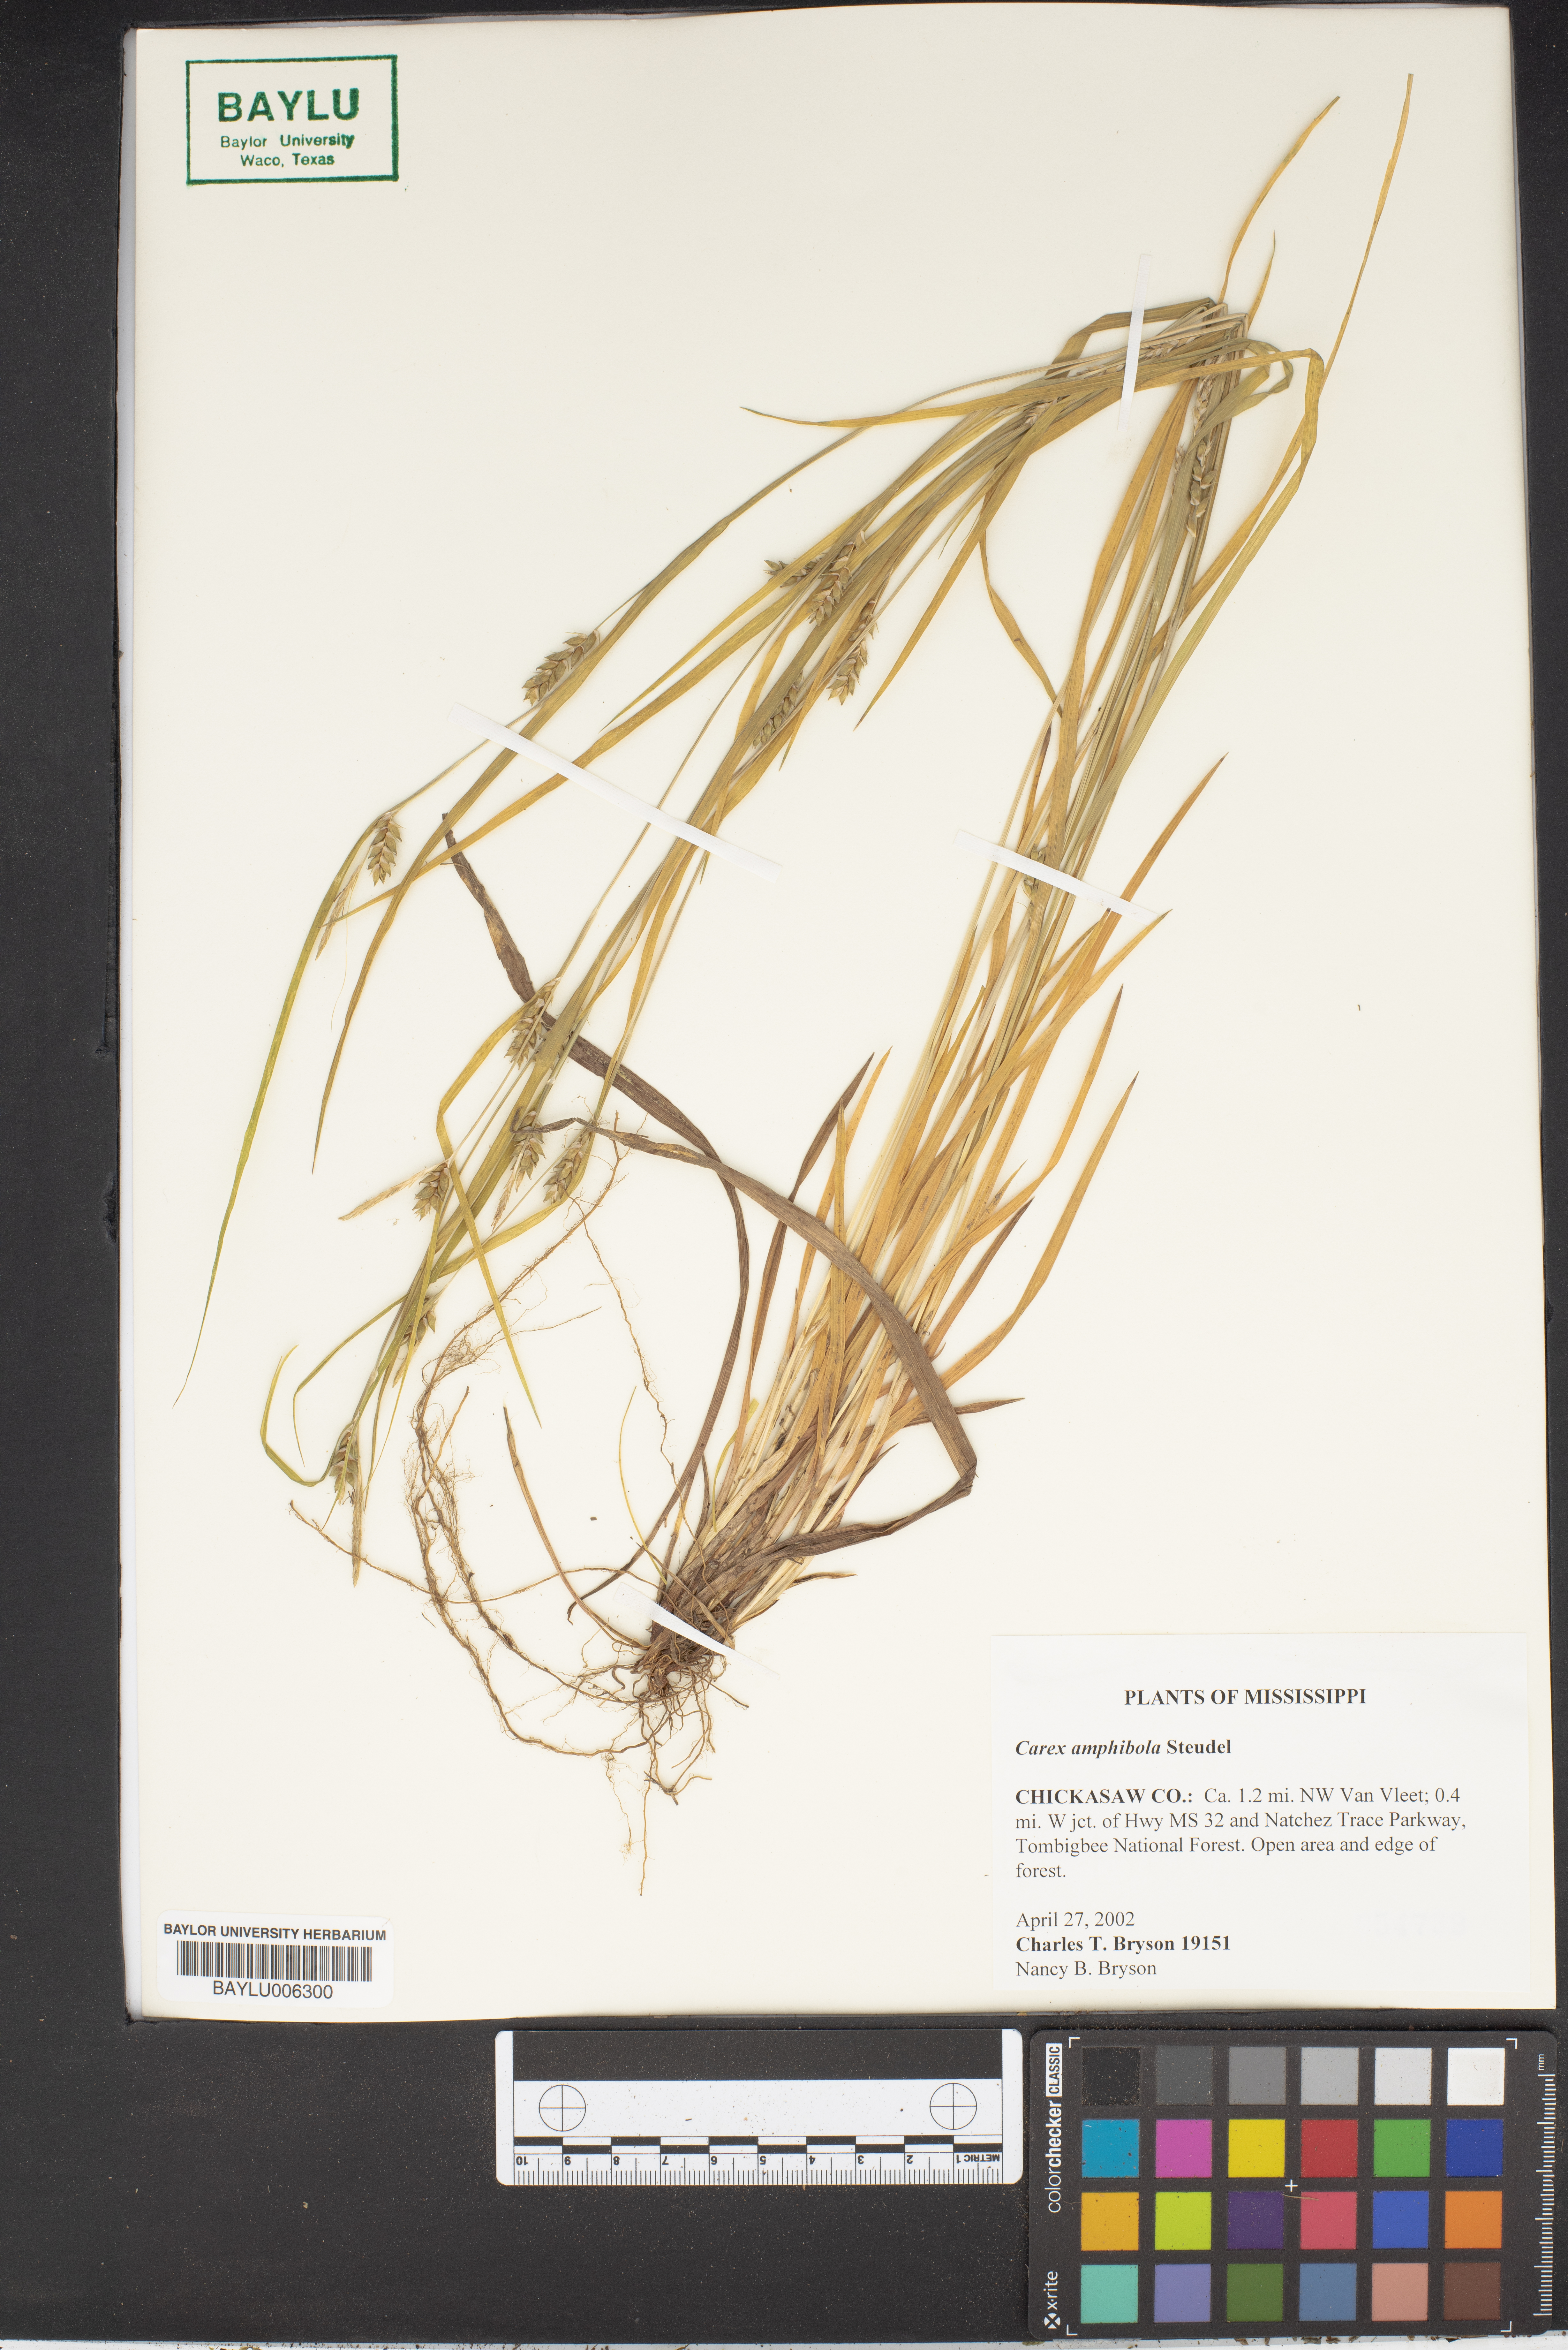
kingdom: Plantae
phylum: Tracheophyta
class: Liliopsida
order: Poales
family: Cyperaceae
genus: Carex
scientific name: Carex amphibola
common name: Amphibious sedge
